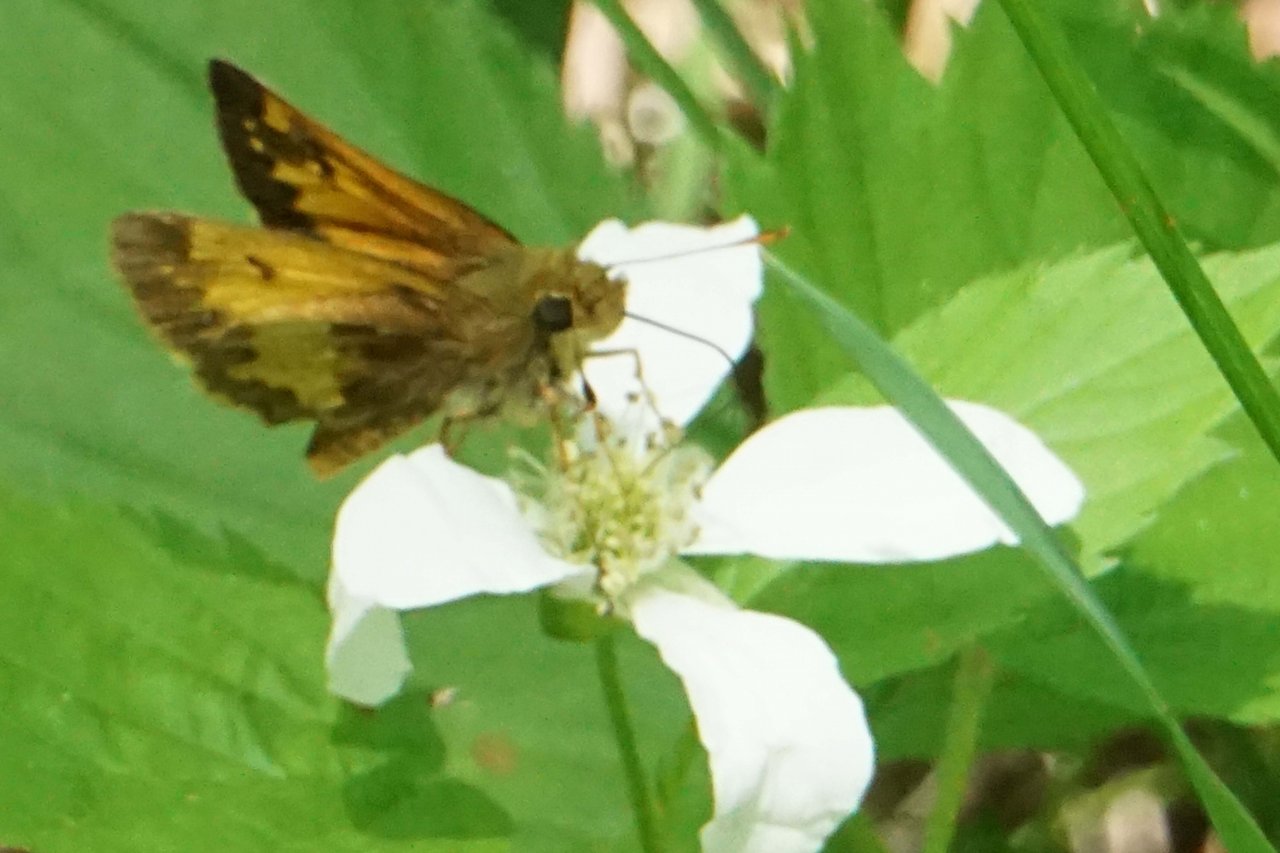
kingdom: Animalia
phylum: Arthropoda
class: Insecta
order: Lepidoptera
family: Hesperiidae
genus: Lon
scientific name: Lon hobomok
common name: Hobomok Skipper
